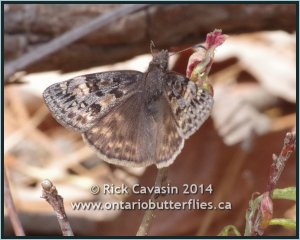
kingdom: Animalia
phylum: Arthropoda
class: Insecta
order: Lepidoptera
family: Hesperiidae
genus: Gesta
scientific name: Gesta
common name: Juvenal's Duskywing
